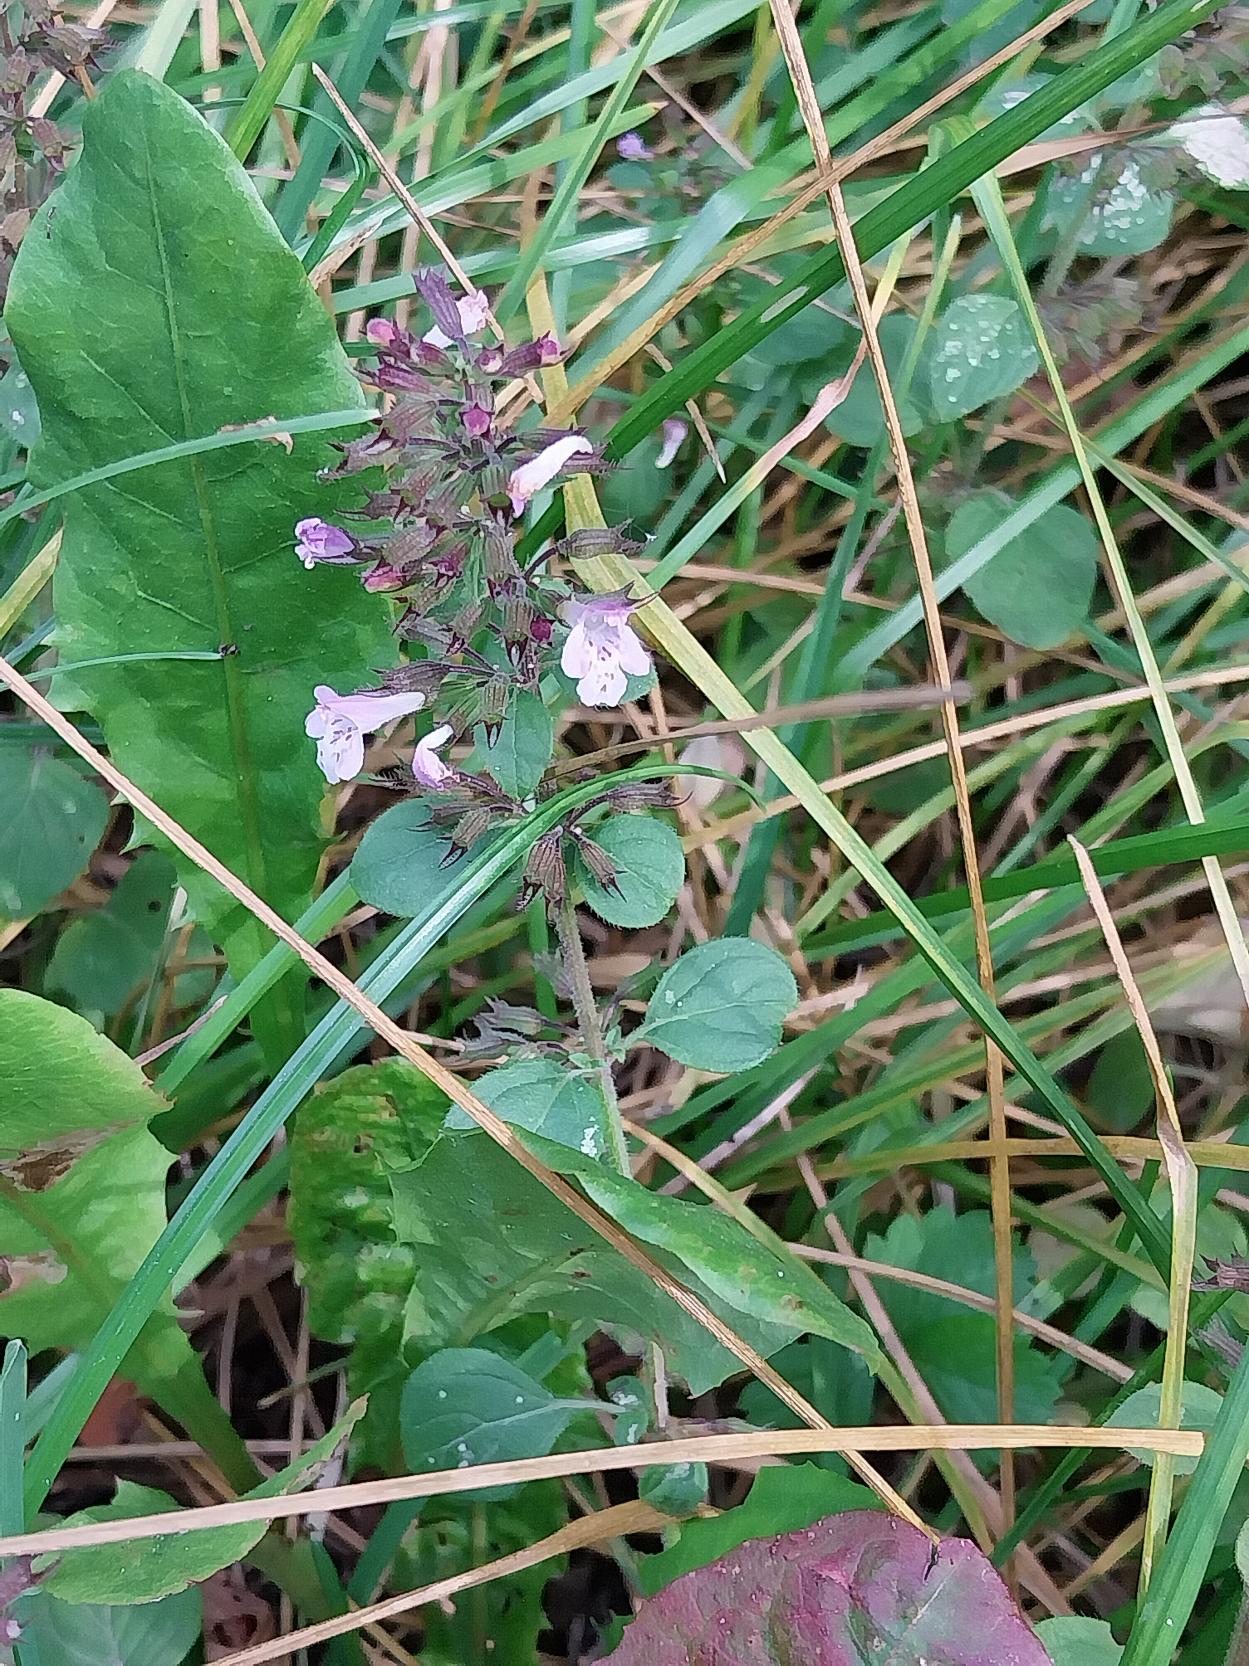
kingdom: Plantae
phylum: Tracheophyta
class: Magnoliopsida
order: Lamiales
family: Lamiaceae
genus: Clinopodium
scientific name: Clinopodium menthifolium
